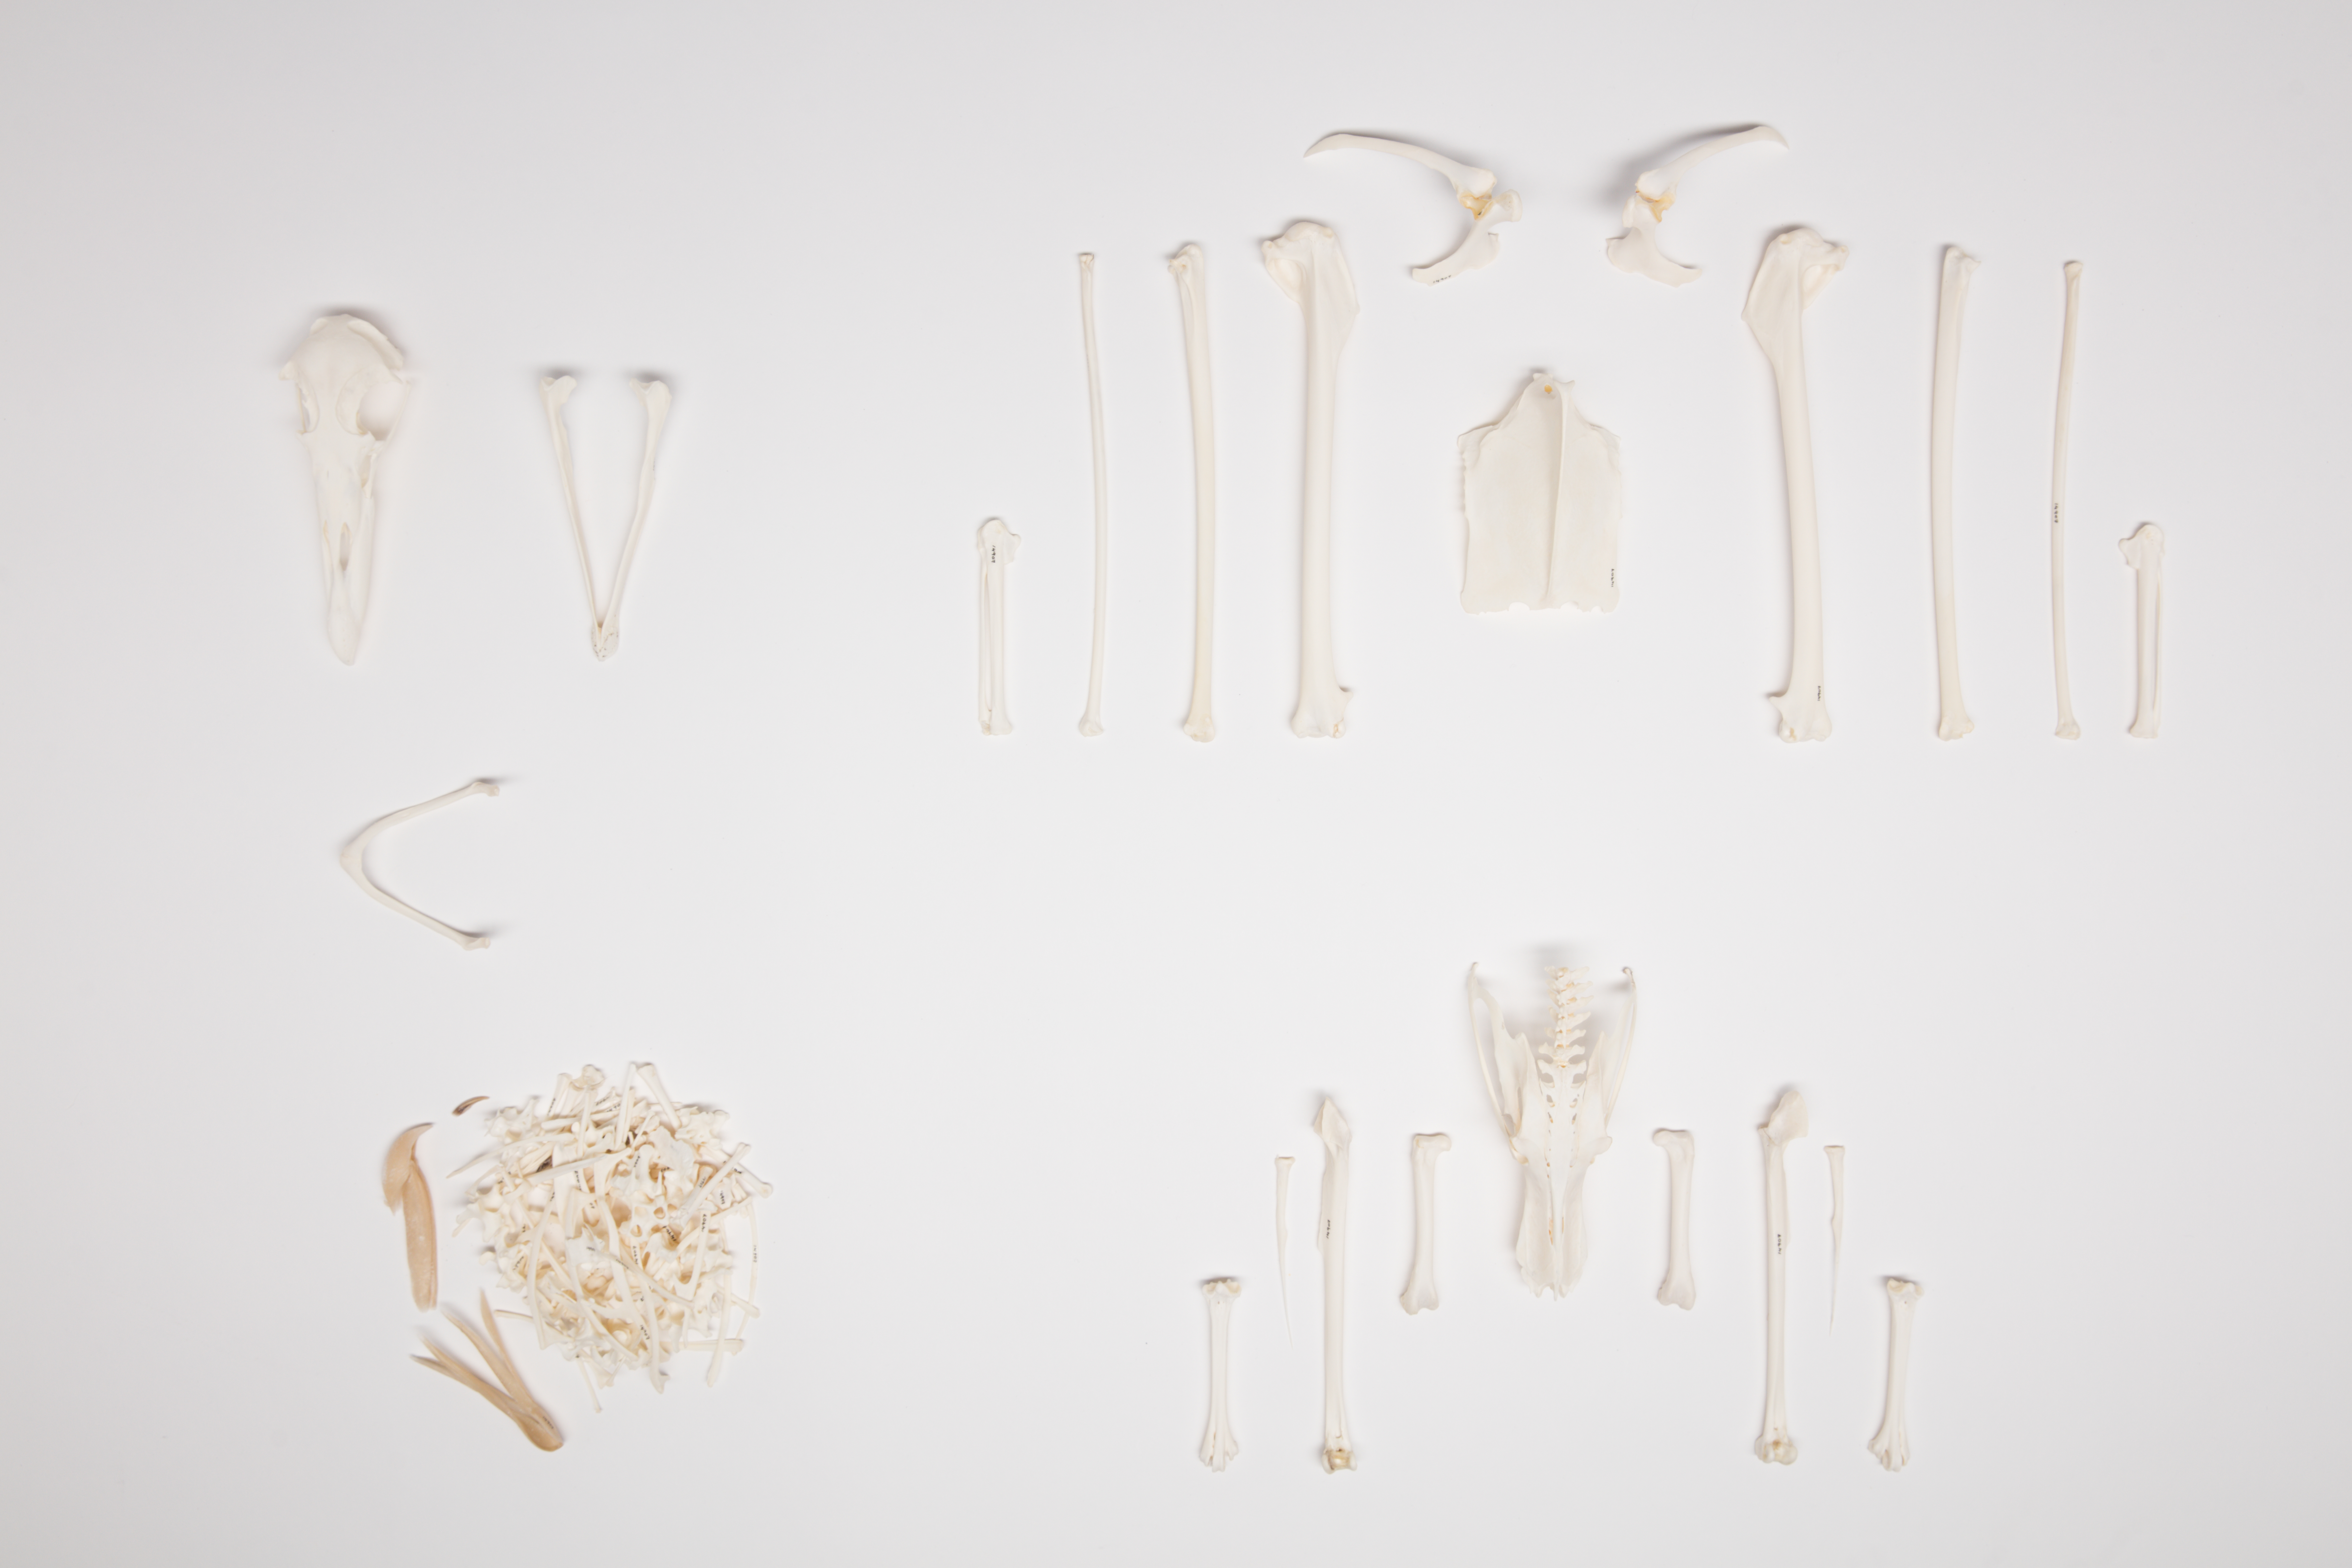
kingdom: Animalia
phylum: Chordata
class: Aves
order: Procellariiformes
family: Procellariidae
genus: Macronectes
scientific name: Macronectes giganteus
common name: Southern giant petrel
